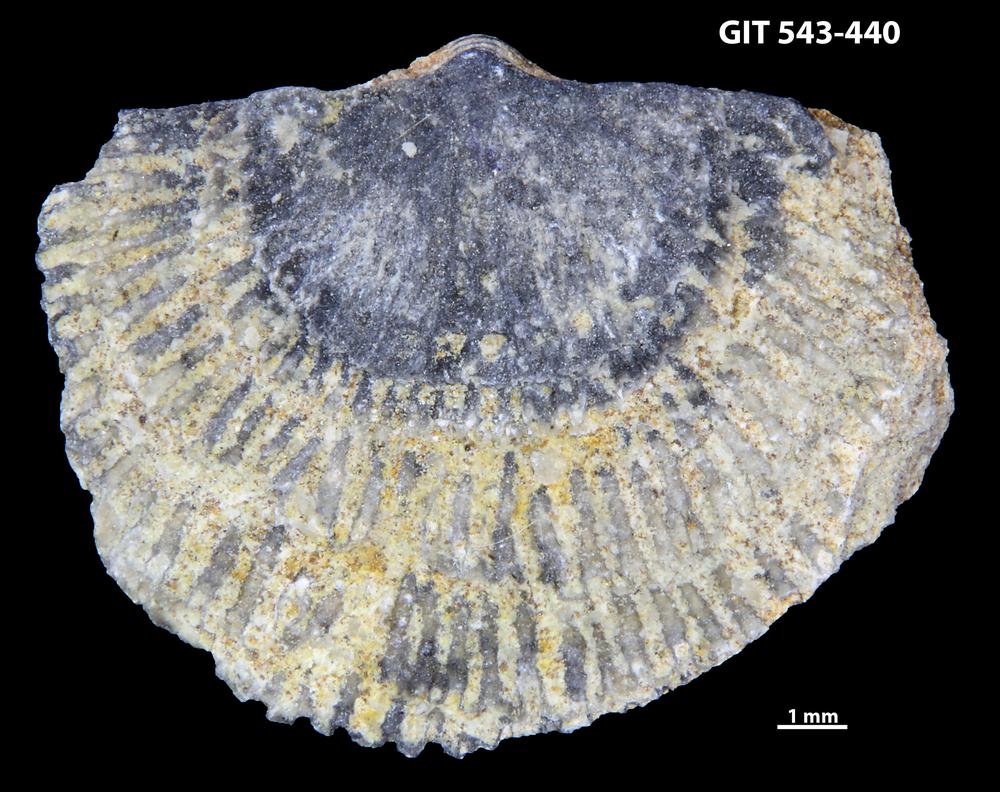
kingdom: Animalia
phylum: Brachiopoda
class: Rhynchonellata
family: Clitambonitidae
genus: Clitambonites
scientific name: Clitambonites Orthisina schmidti
